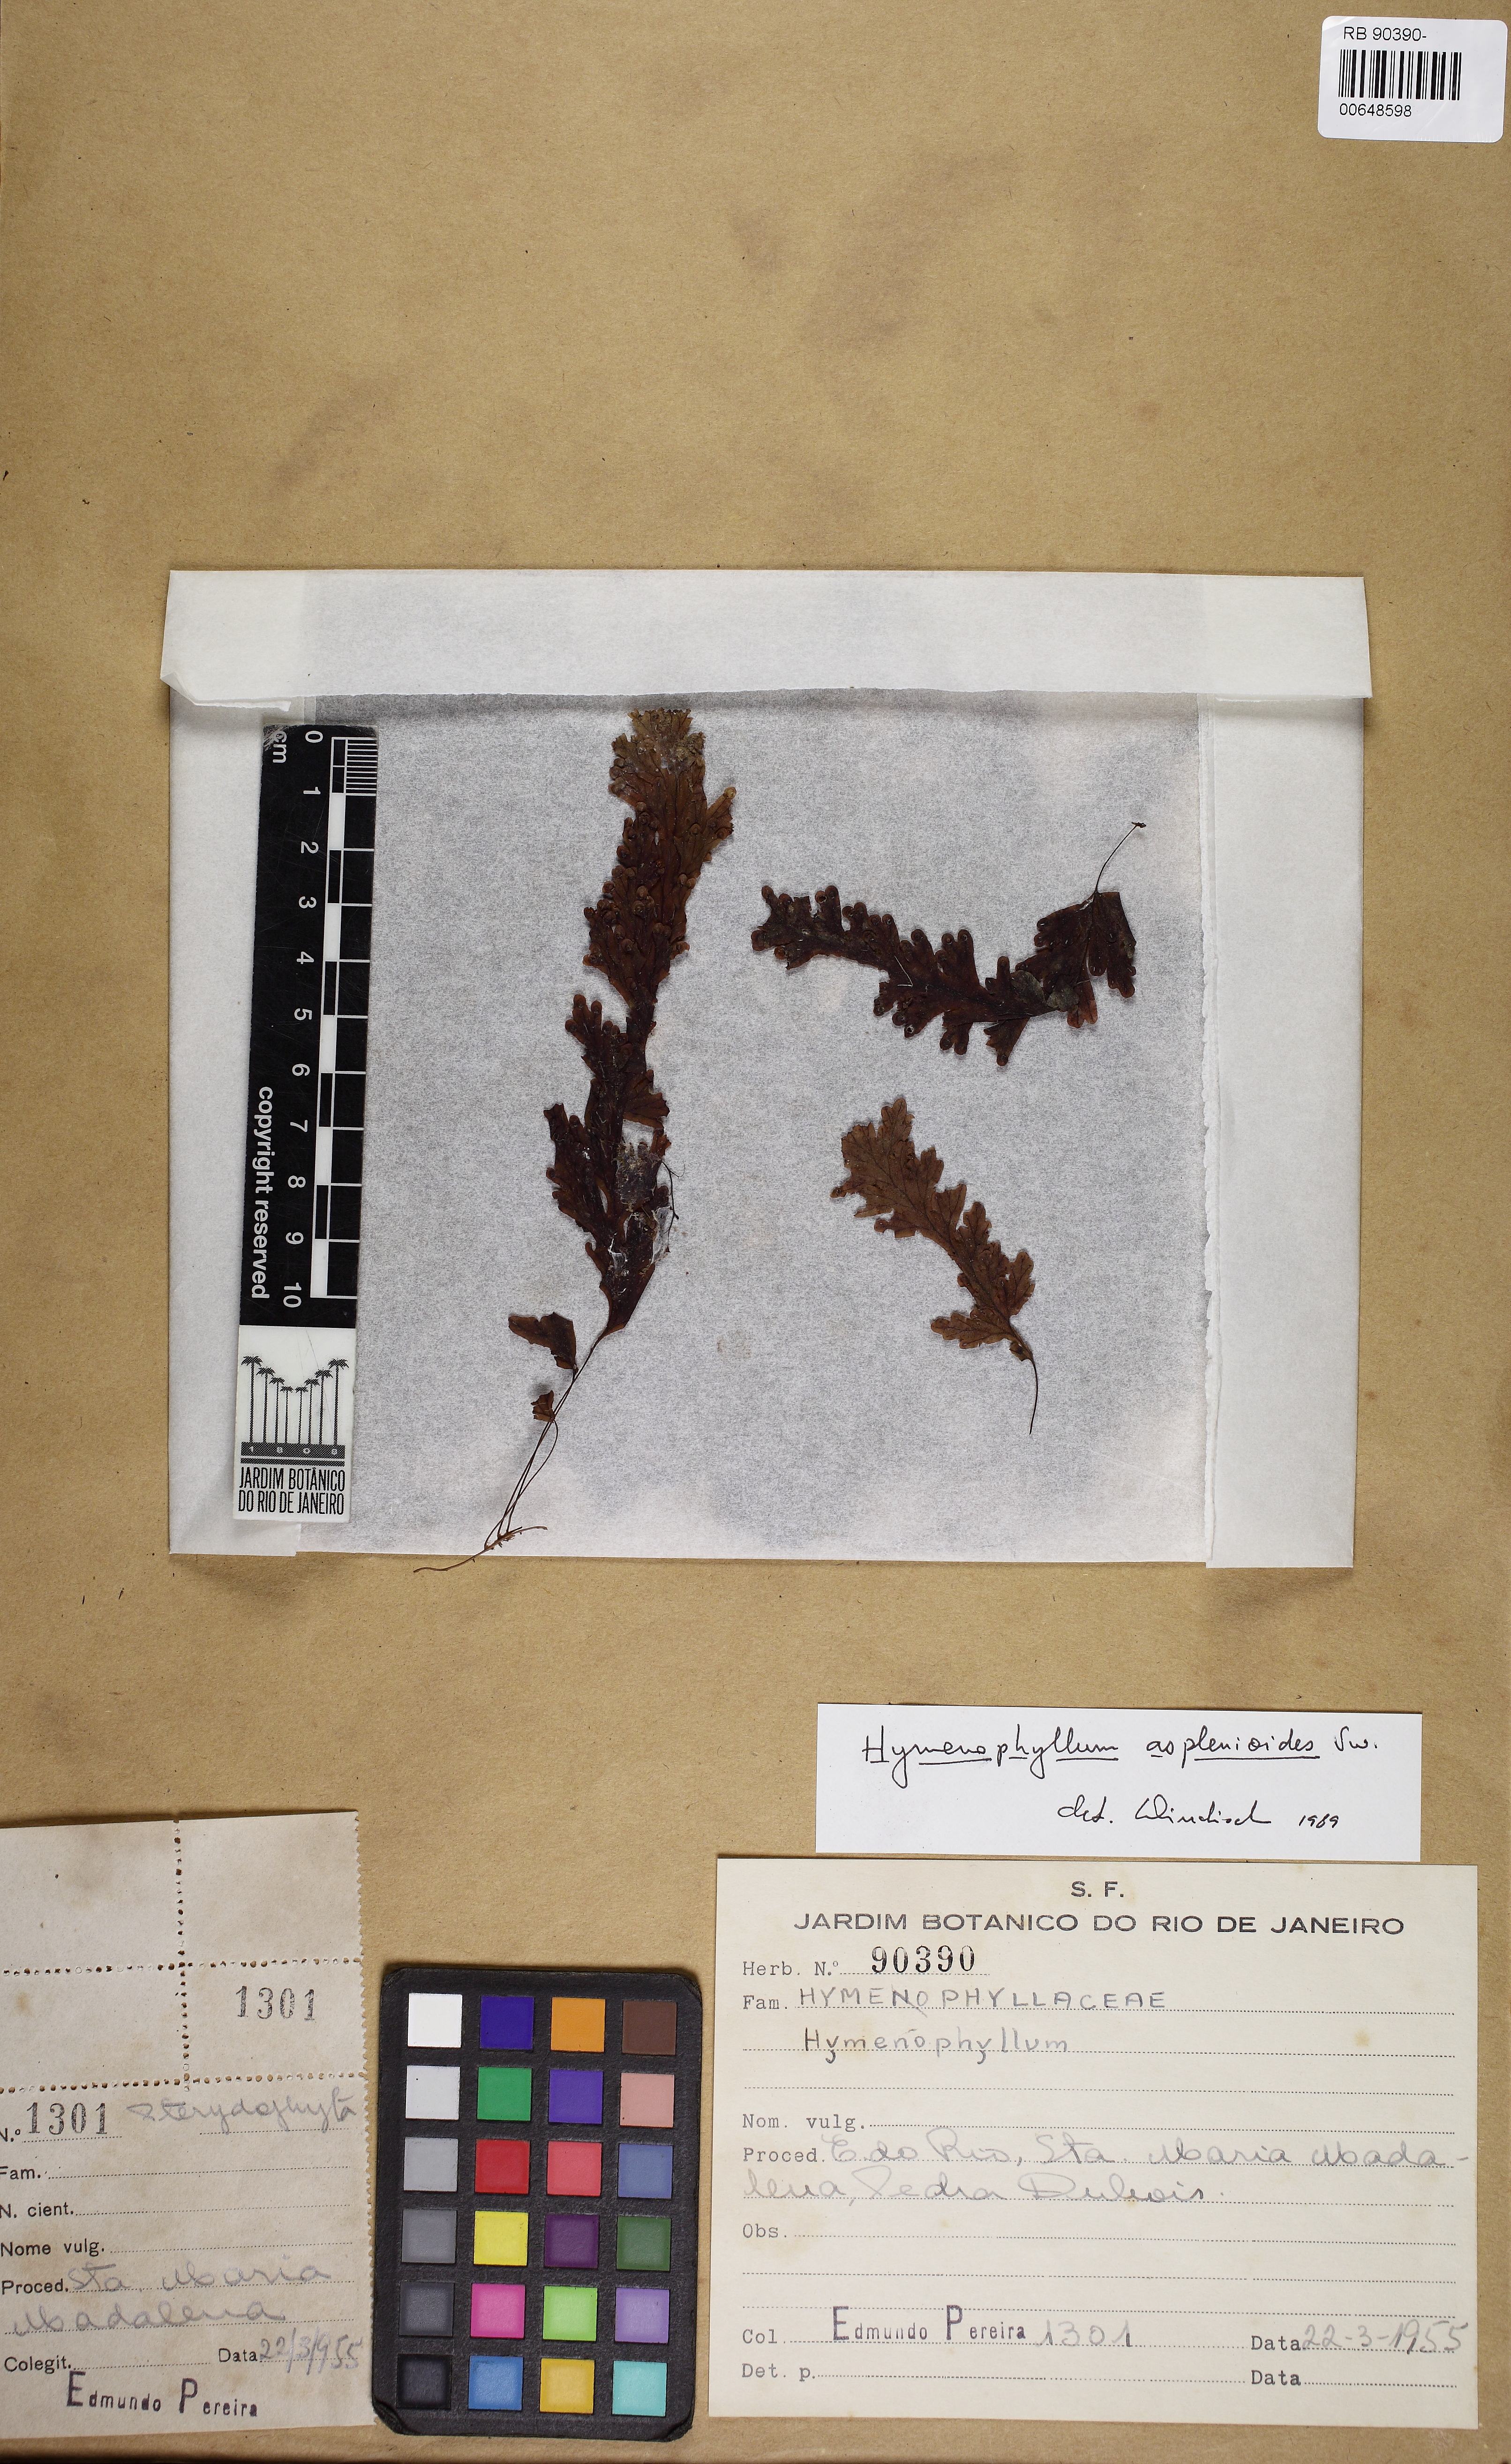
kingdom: Plantae
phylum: Tracheophyta
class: Polypodiopsida
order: Hymenophyllales
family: Hymenophyllaceae
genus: Hymenophyllum
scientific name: Hymenophyllum asplenioides
